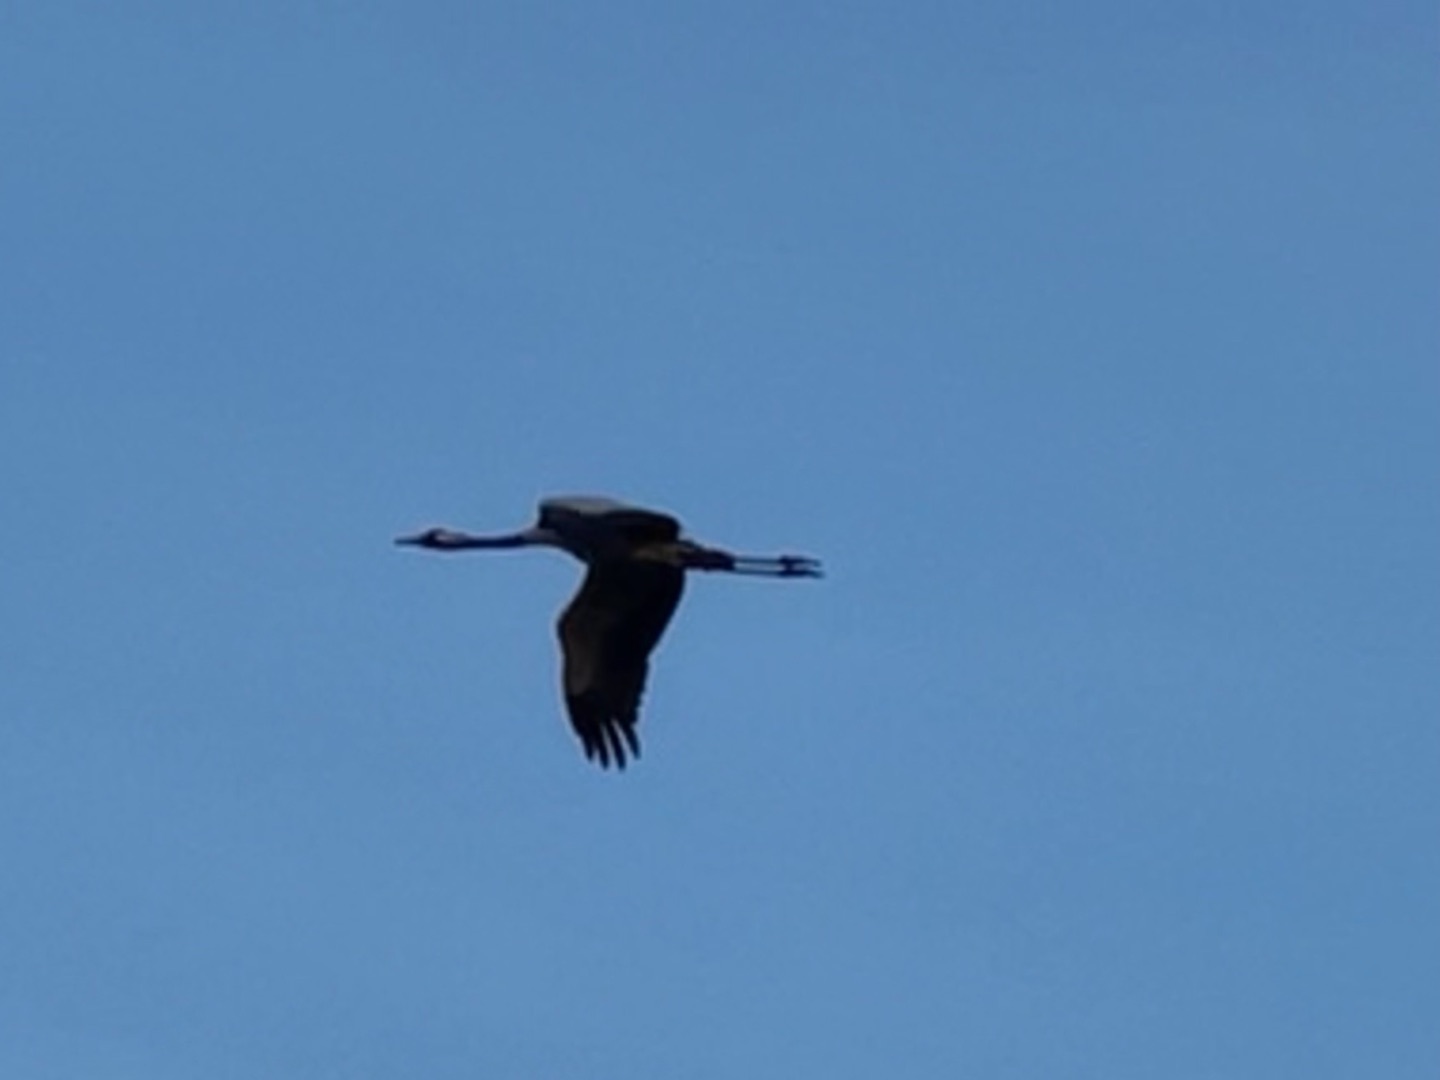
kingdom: Animalia
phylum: Chordata
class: Aves
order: Gruiformes
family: Gruidae
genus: Grus
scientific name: Grus grus
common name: Trane
